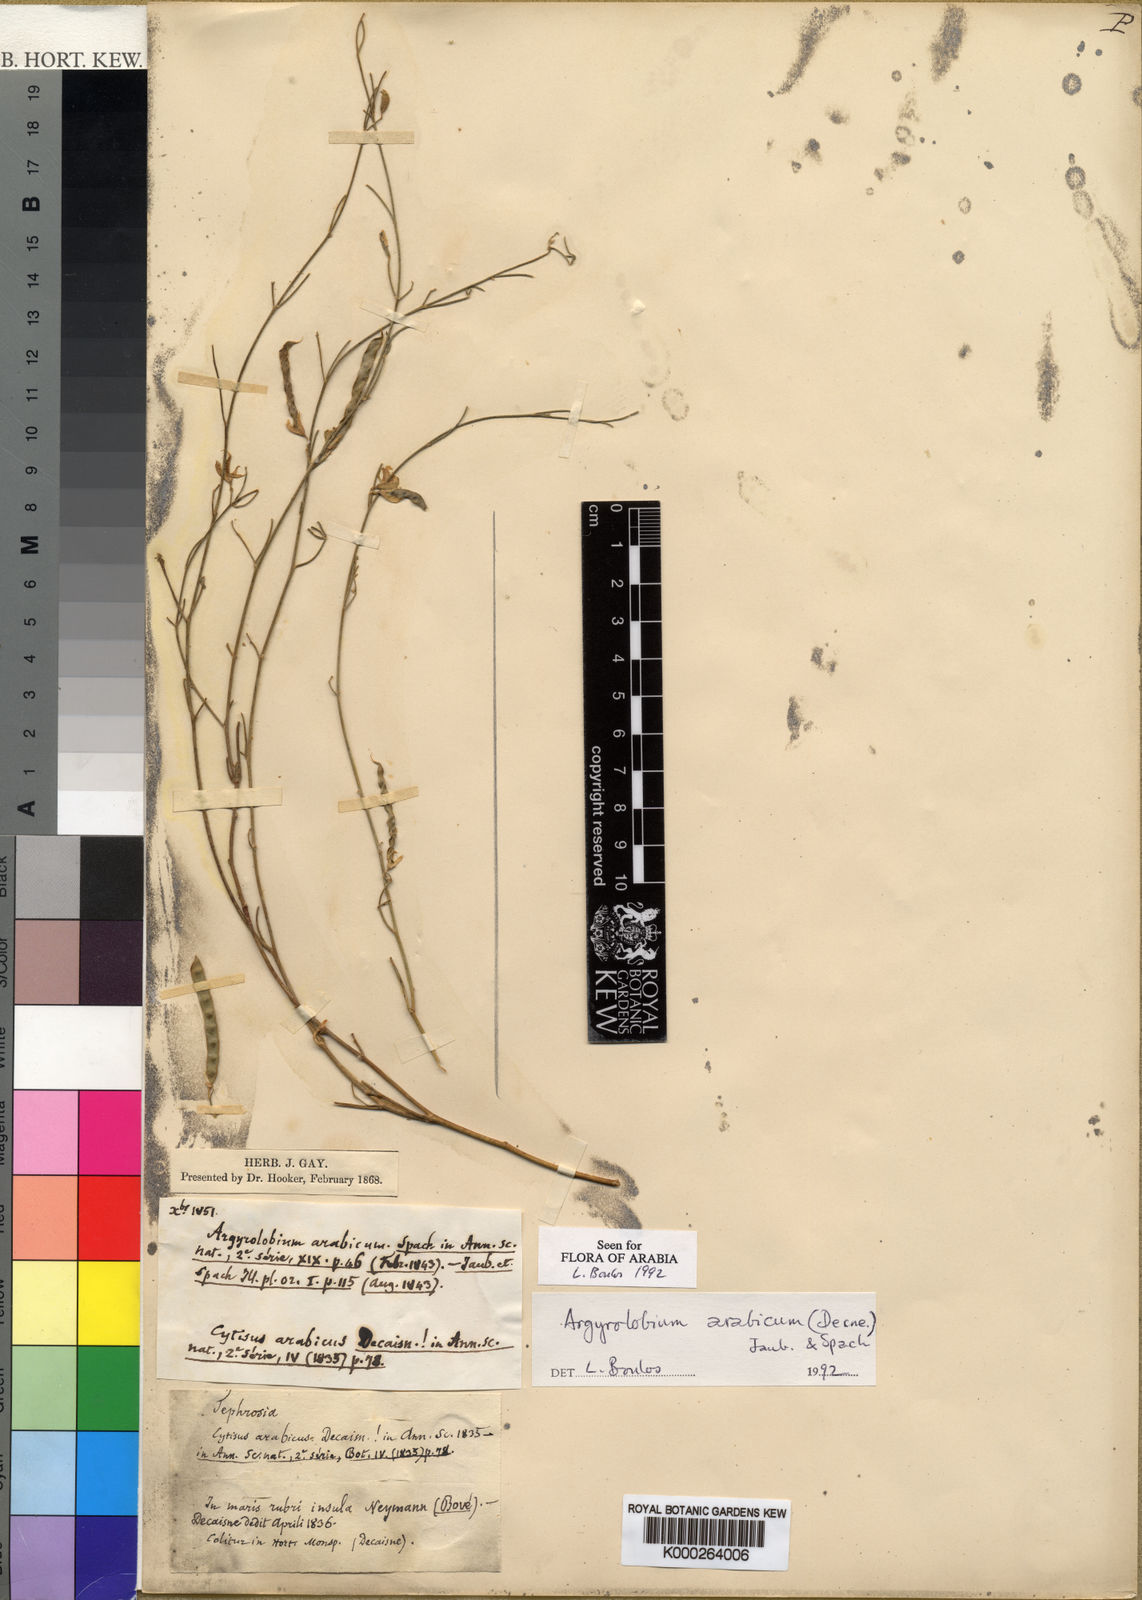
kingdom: Plantae
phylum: Tracheophyta
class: Magnoliopsida
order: Fabales
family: Fabaceae
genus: Argyrolobium
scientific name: Argyrolobium arabicum
